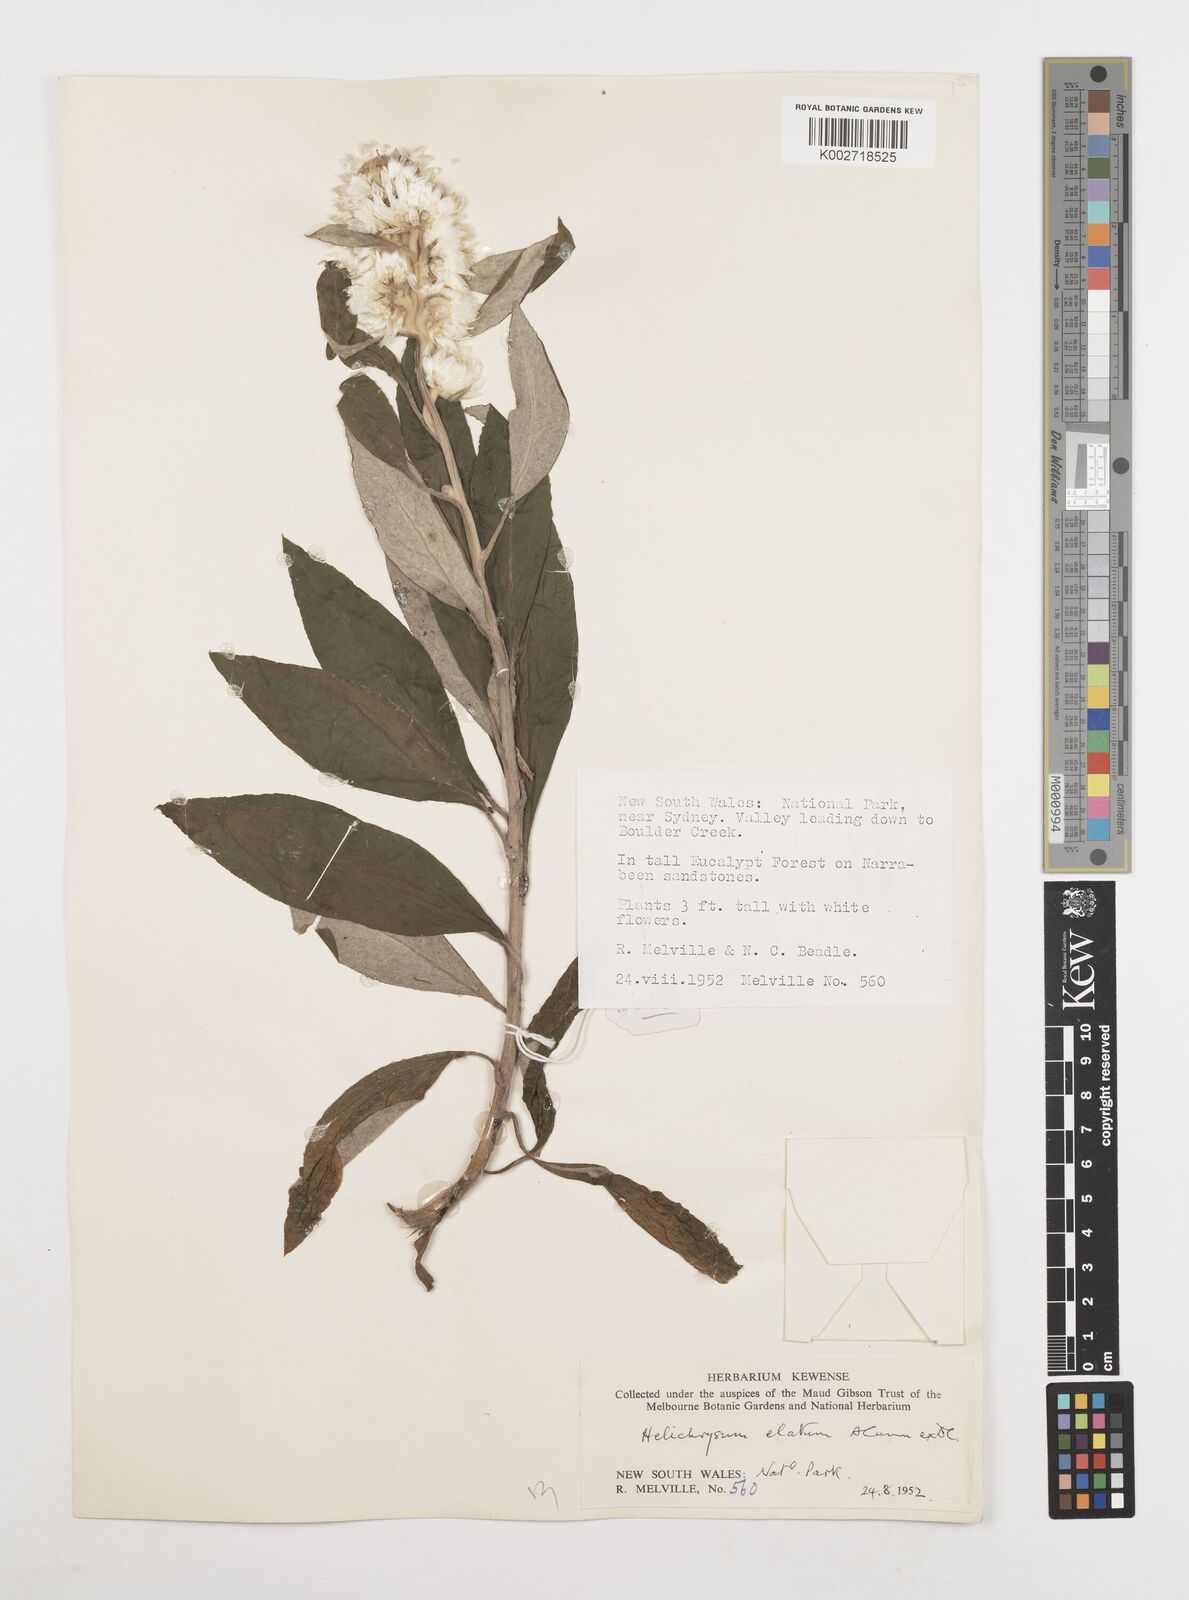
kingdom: Plantae
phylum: Tracheophyta
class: Magnoliopsida
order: Asterales
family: Asteraceae
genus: Leucozoma
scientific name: Leucozoma elatum
